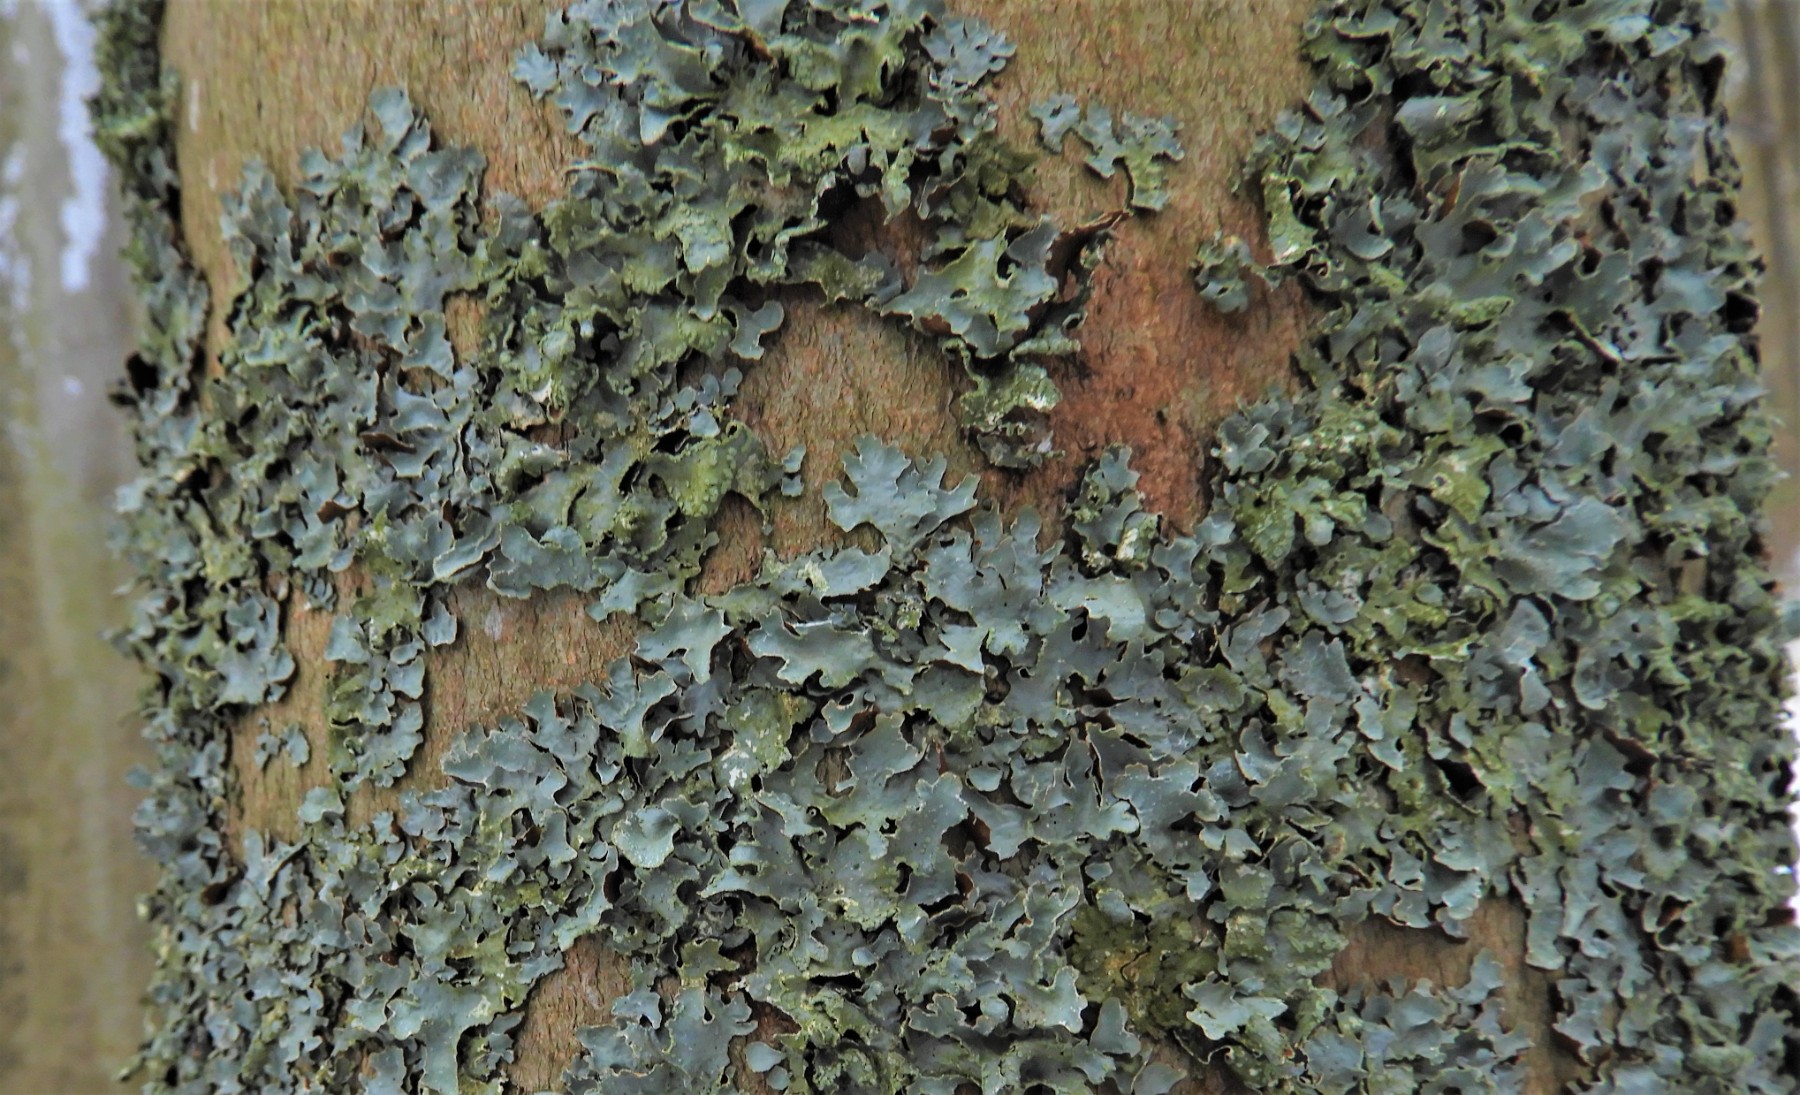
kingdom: Fungi
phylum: Ascomycota
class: Lecanoromycetes
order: Lecanorales
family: Parmeliaceae
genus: Parmelia
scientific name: Parmelia sulcata
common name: rynket skållav
